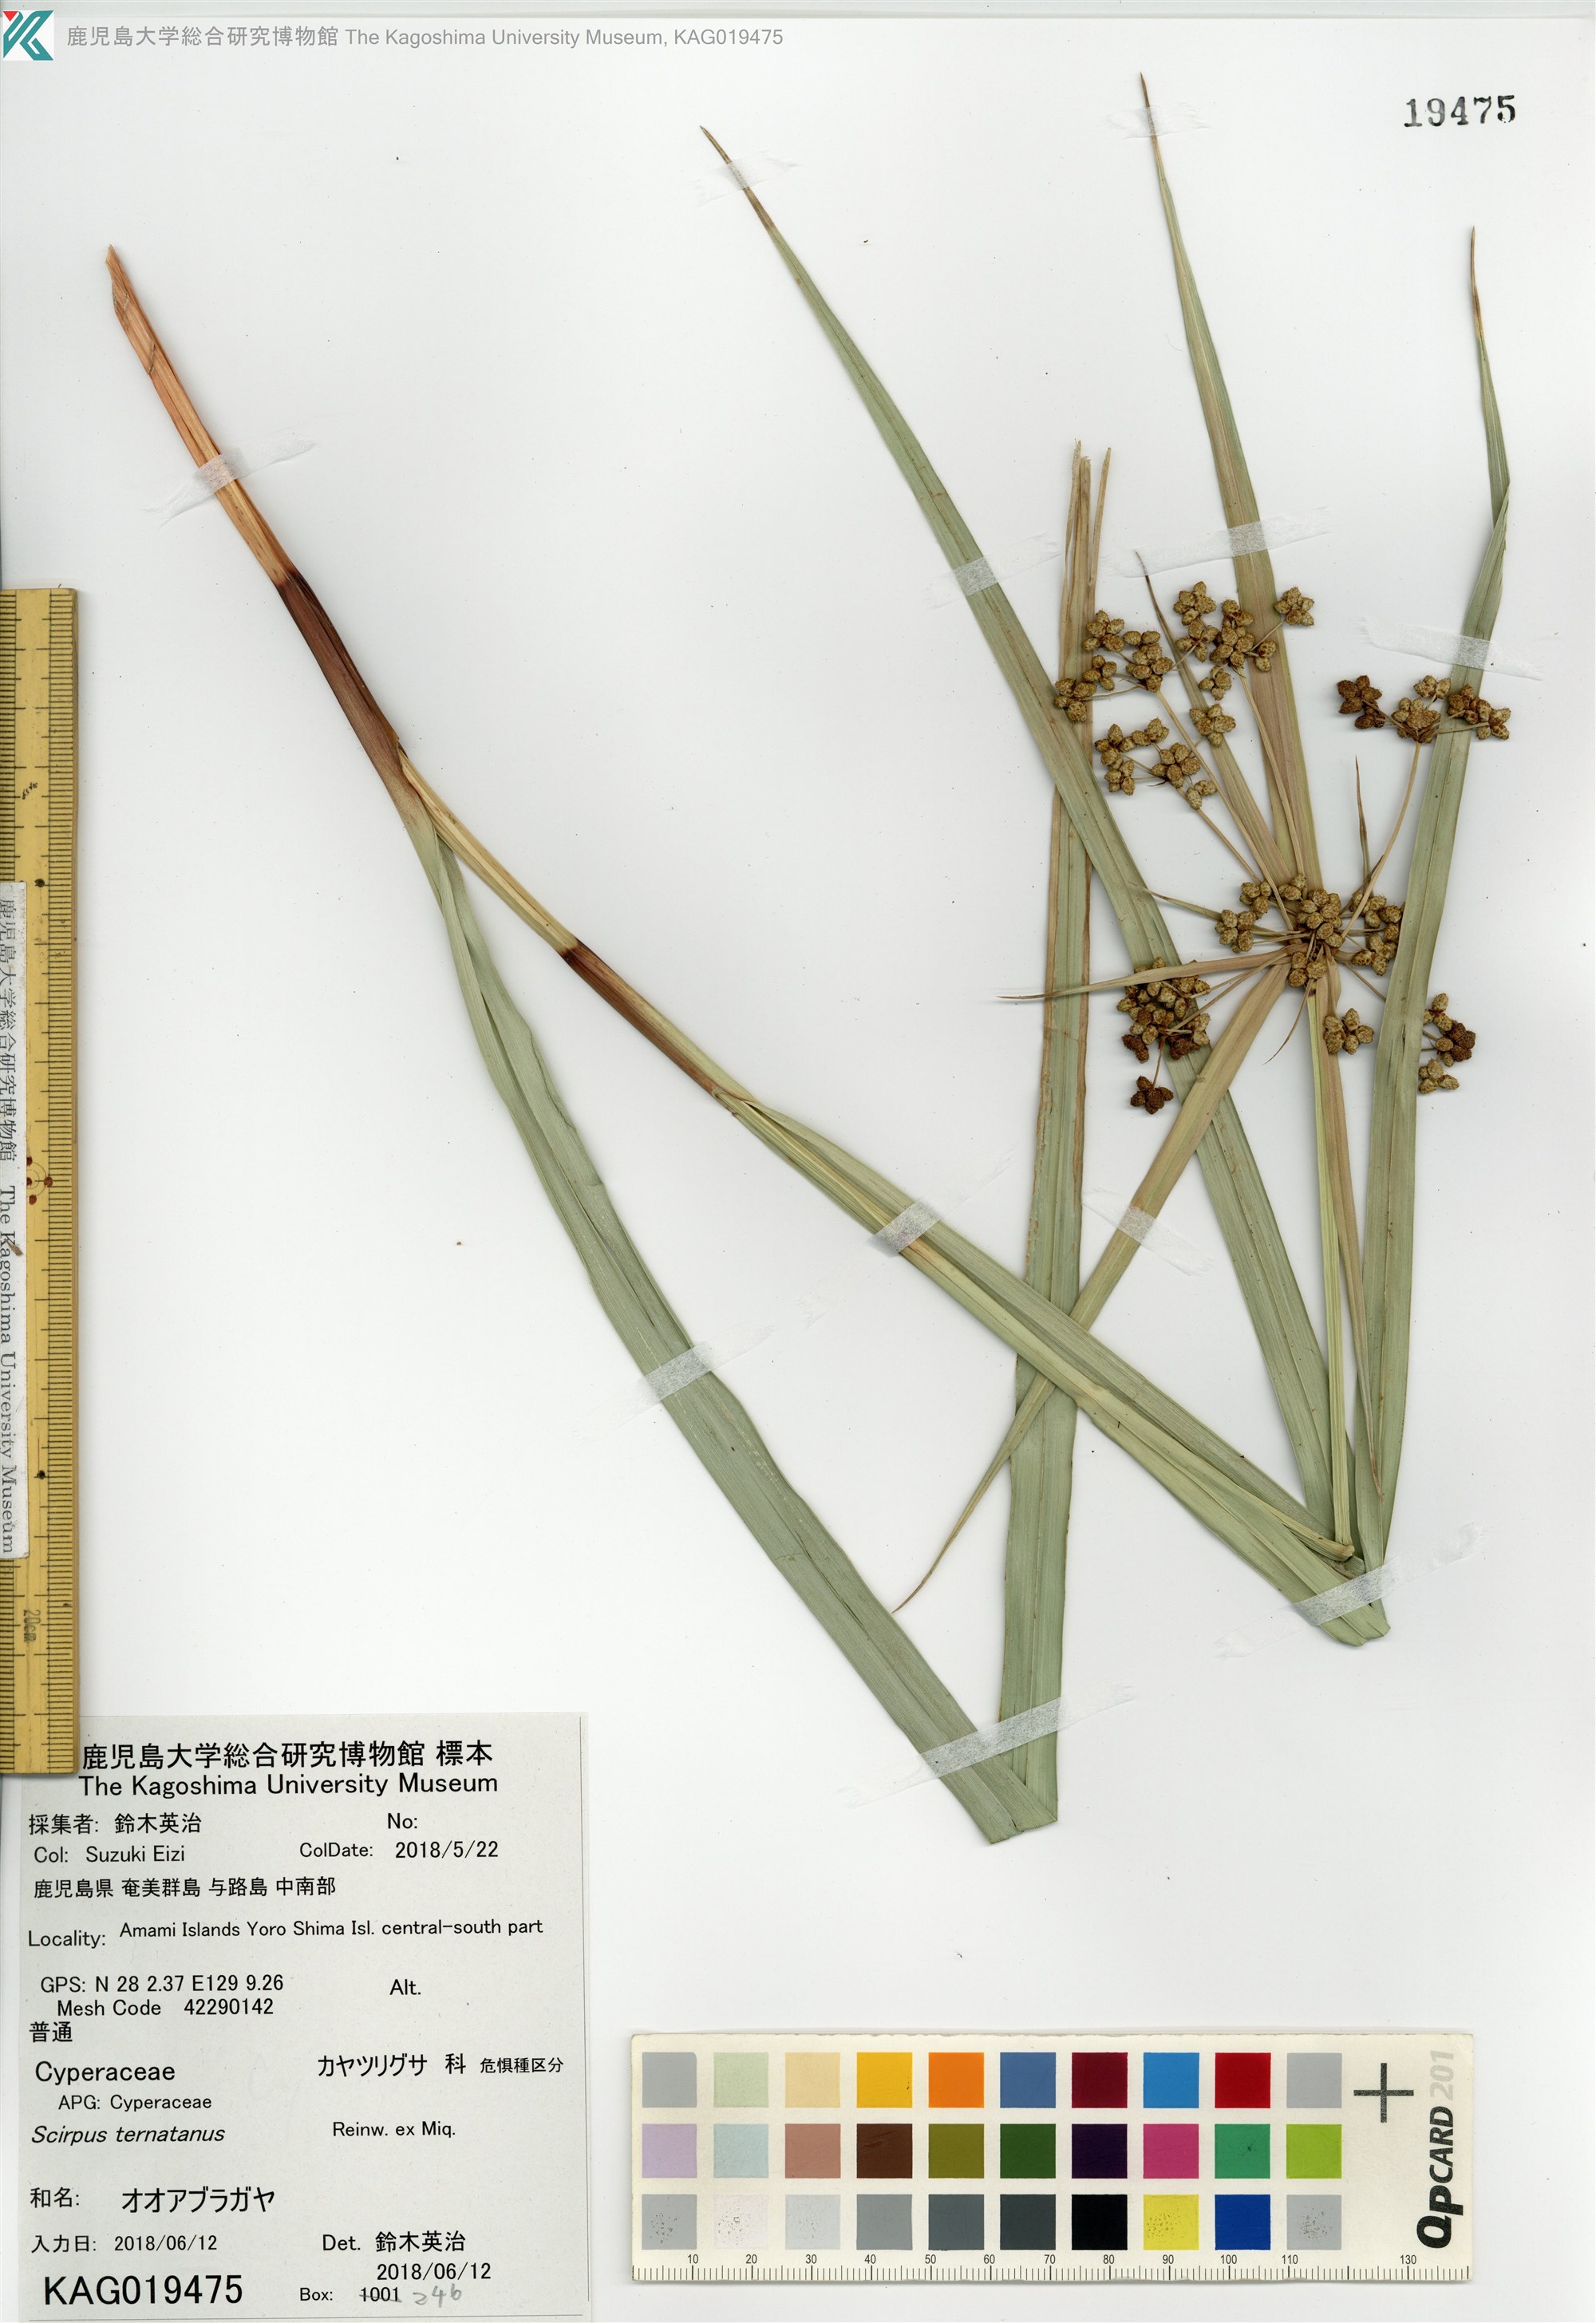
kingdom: Plantae
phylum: Tracheophyta
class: Liliopsida
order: Poales
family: Cyperaceae
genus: Scirpus
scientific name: Scirpus ternatanus
